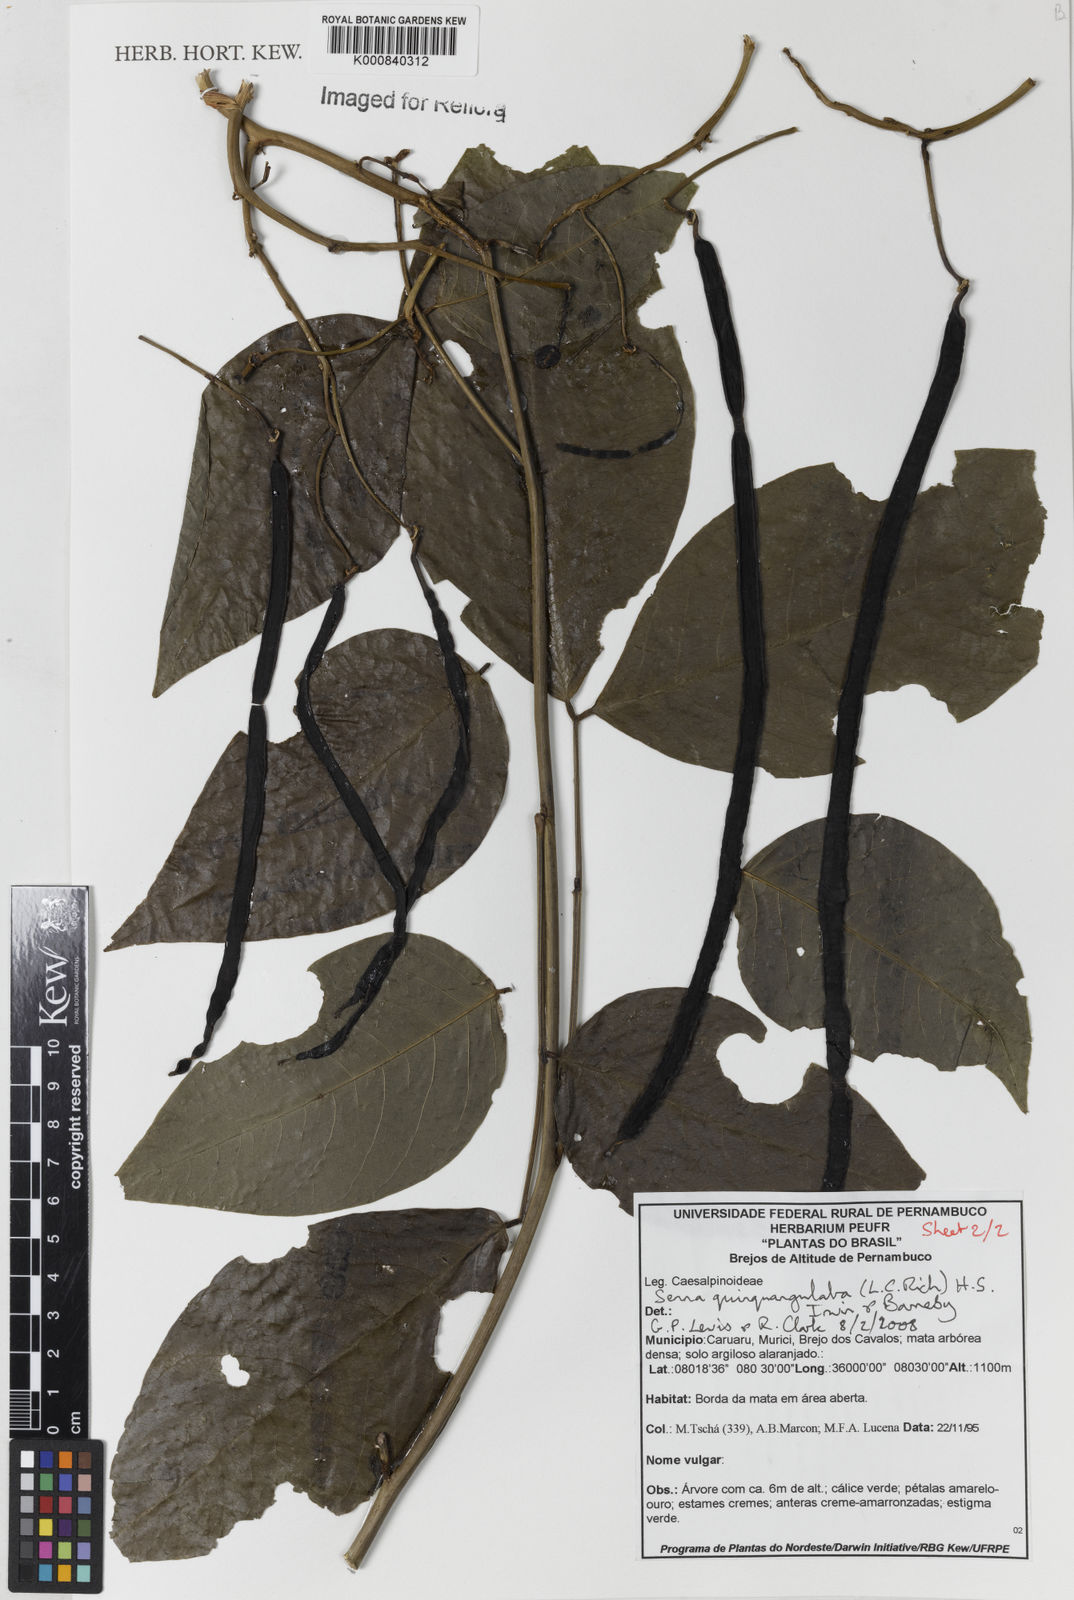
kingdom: Plantae
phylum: Tracheophyta
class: Magnoliopsida
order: Fabales
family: Fabaceae
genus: Senna
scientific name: Senna georgica
